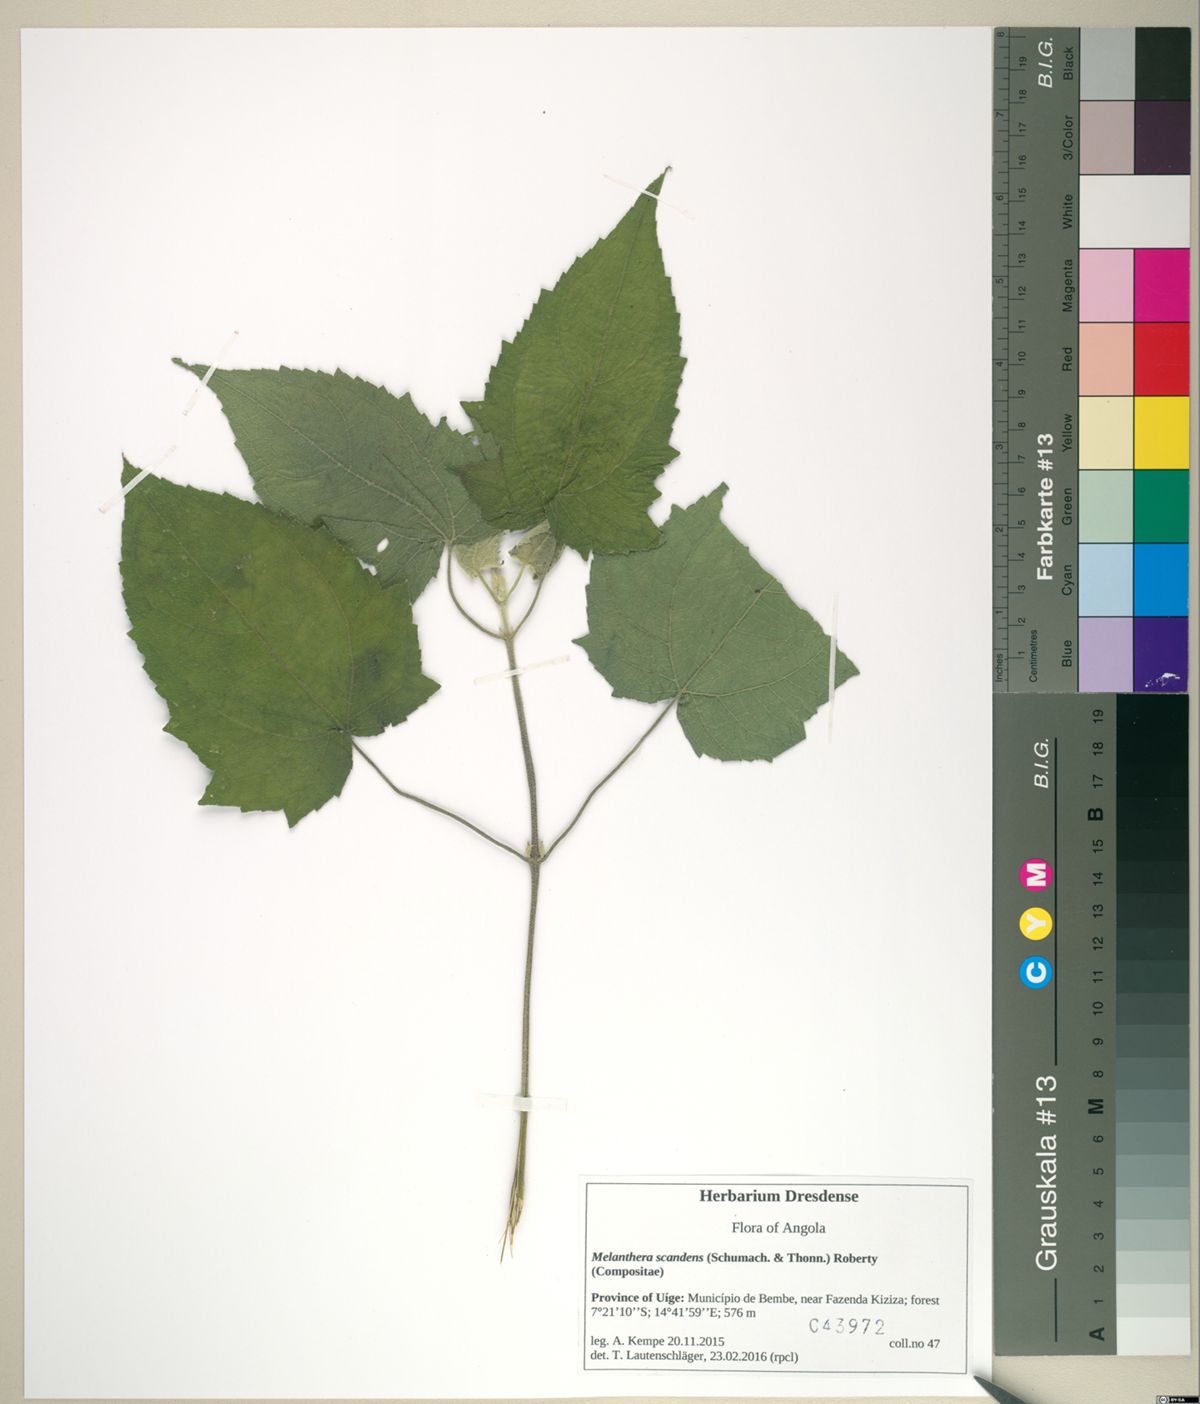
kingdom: Plantae
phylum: Tracheophyta
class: Magnoliopsida
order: Asterales
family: Asteraceae
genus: Melanthera
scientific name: Melanthera scandens
